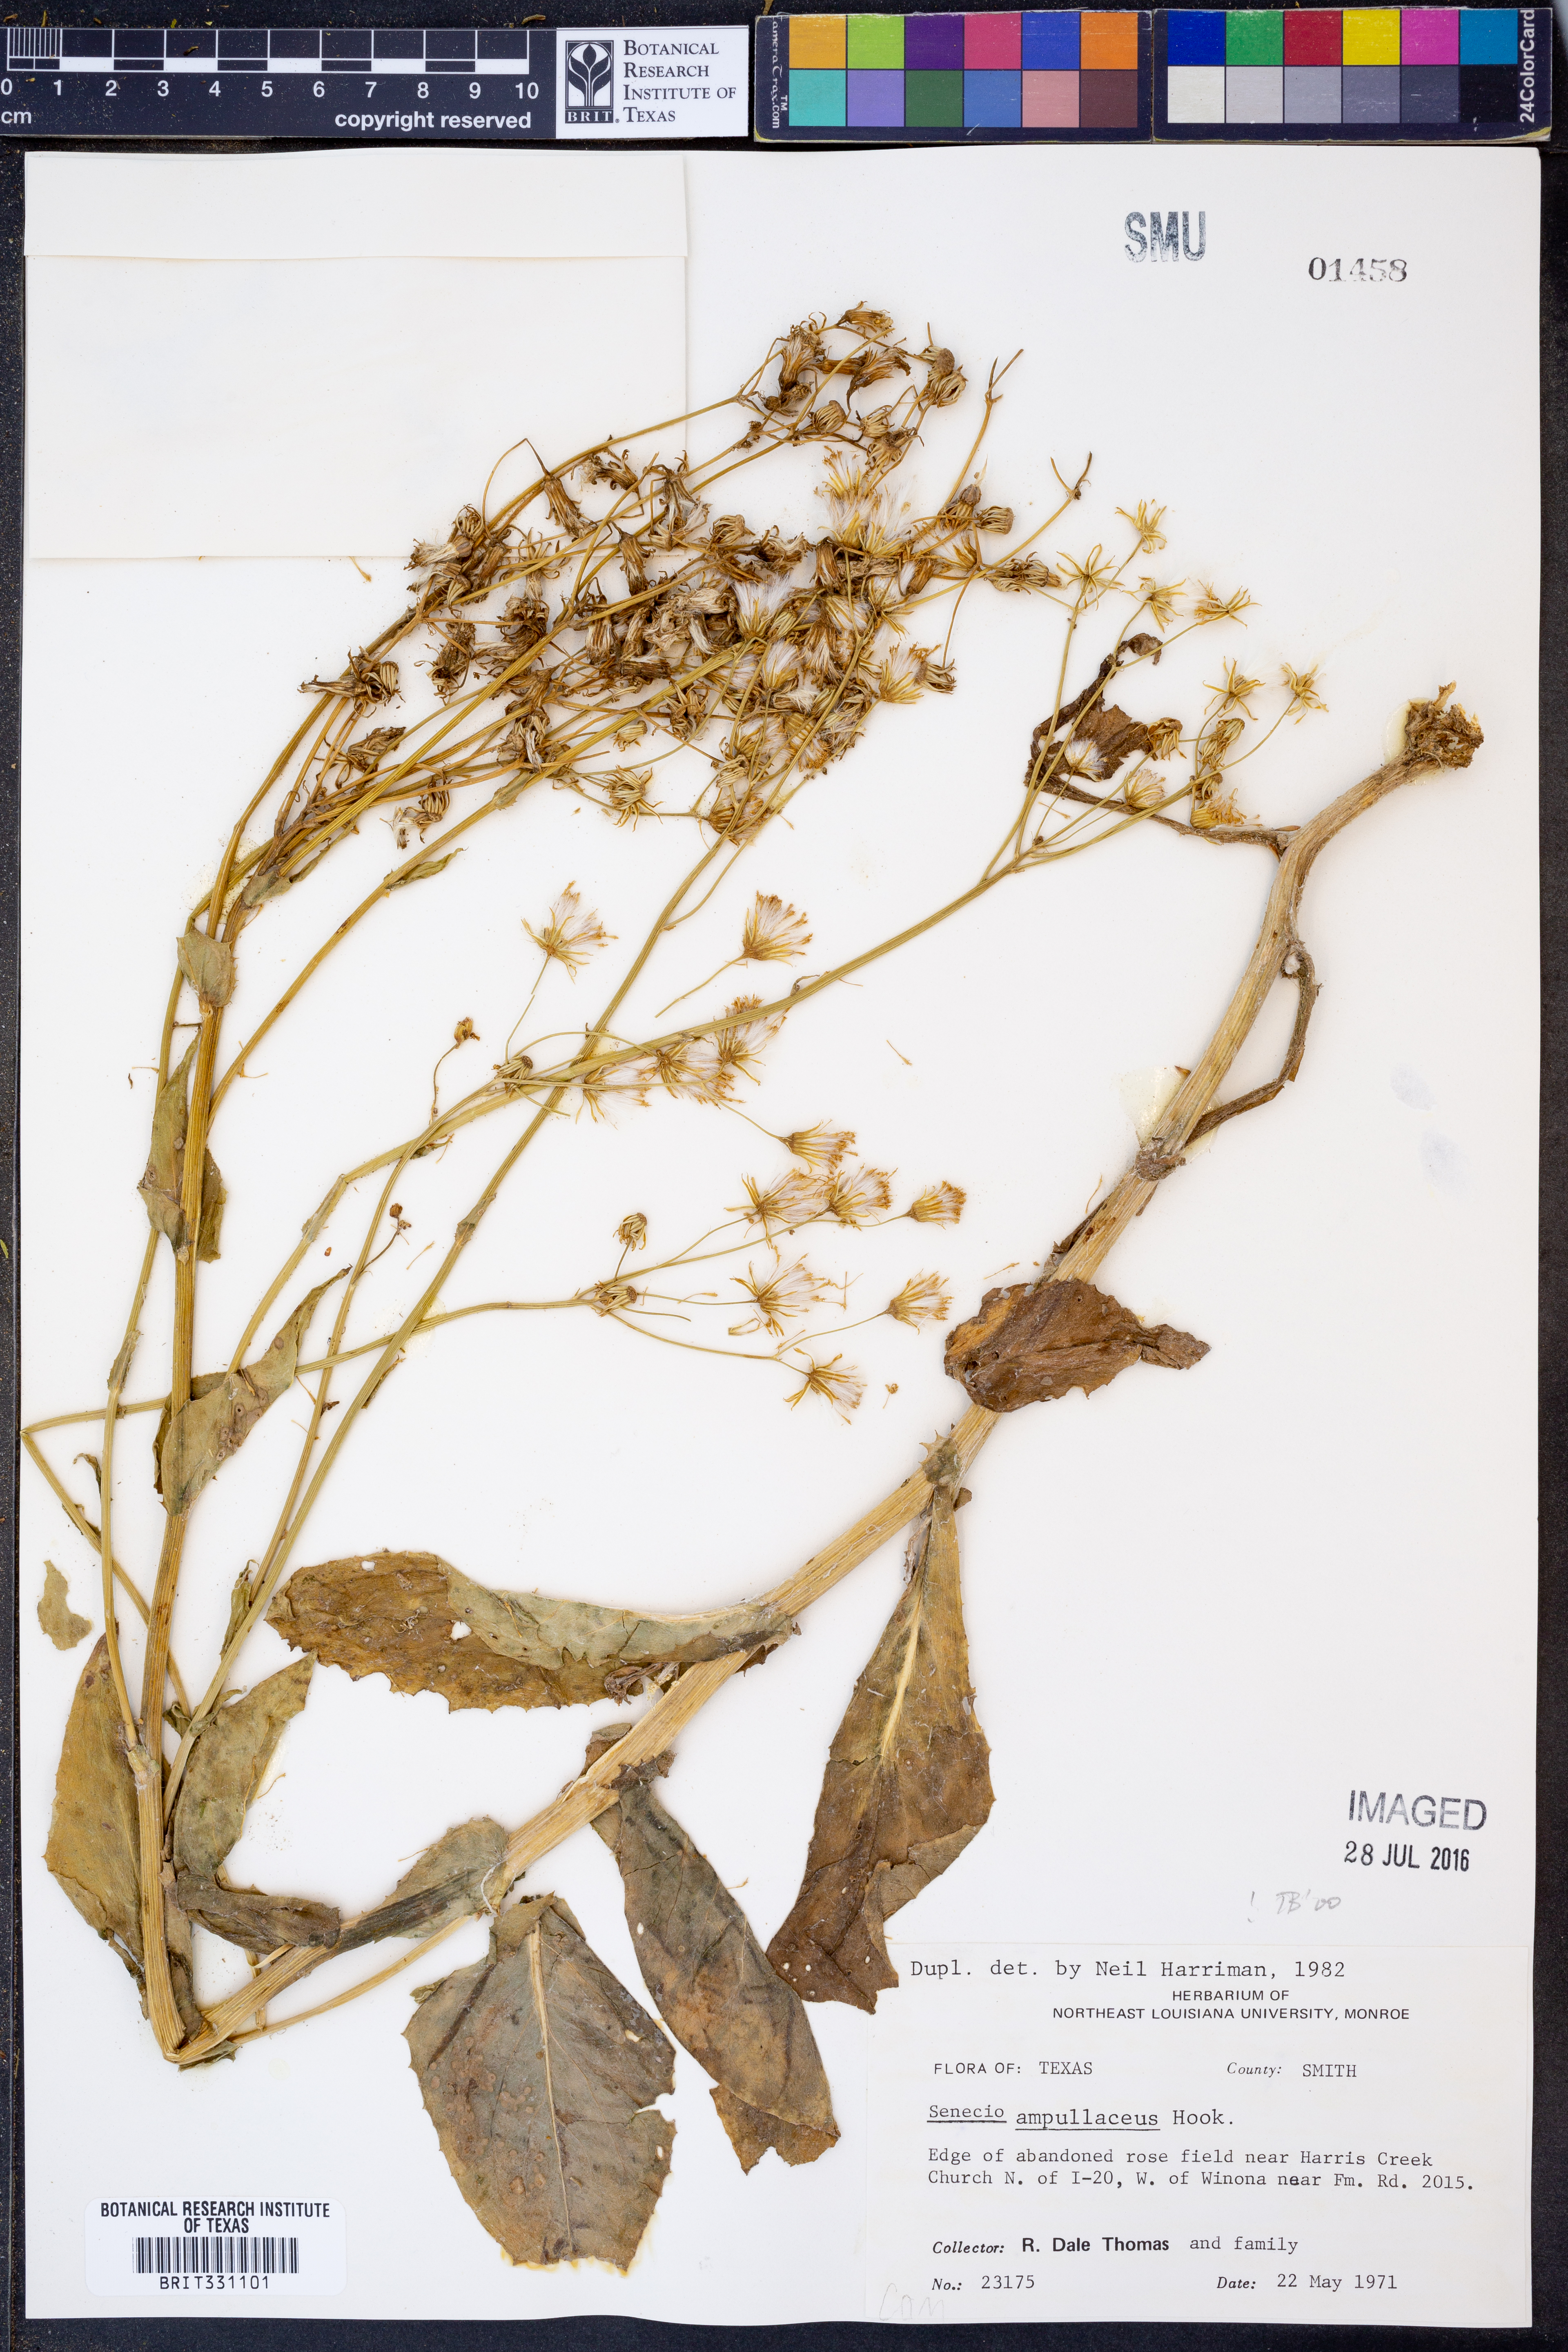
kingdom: Plantae
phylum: Tracheophyta
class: Magnoliopsida
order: Asterales
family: Asteraceae
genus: Senecio
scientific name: Senecio ampullaceus
